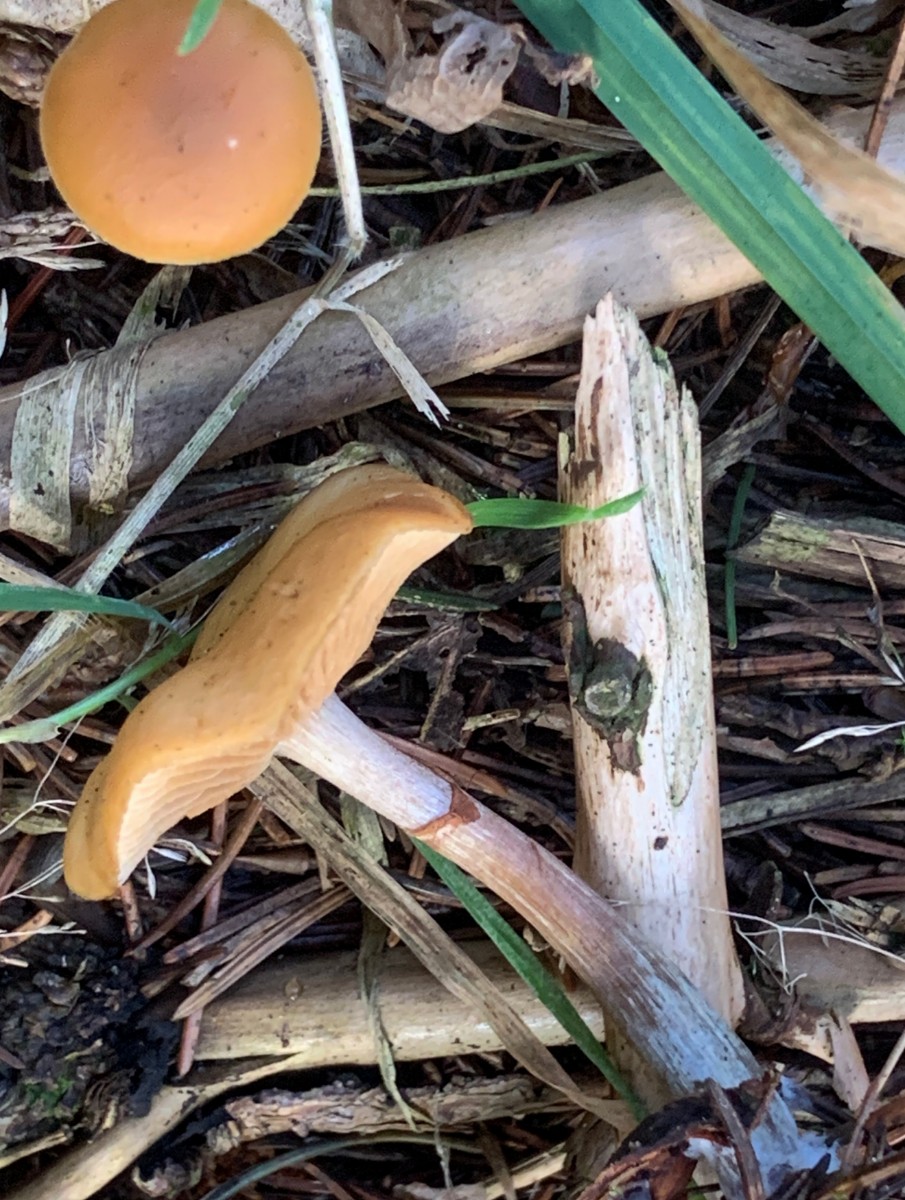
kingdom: Fungi
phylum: Basidiomycota
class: Agaricomycetes
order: Agaricales
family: Hymenogastraceae
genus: Galerina
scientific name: Galerina marginata
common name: randbæltet hjelmhat
